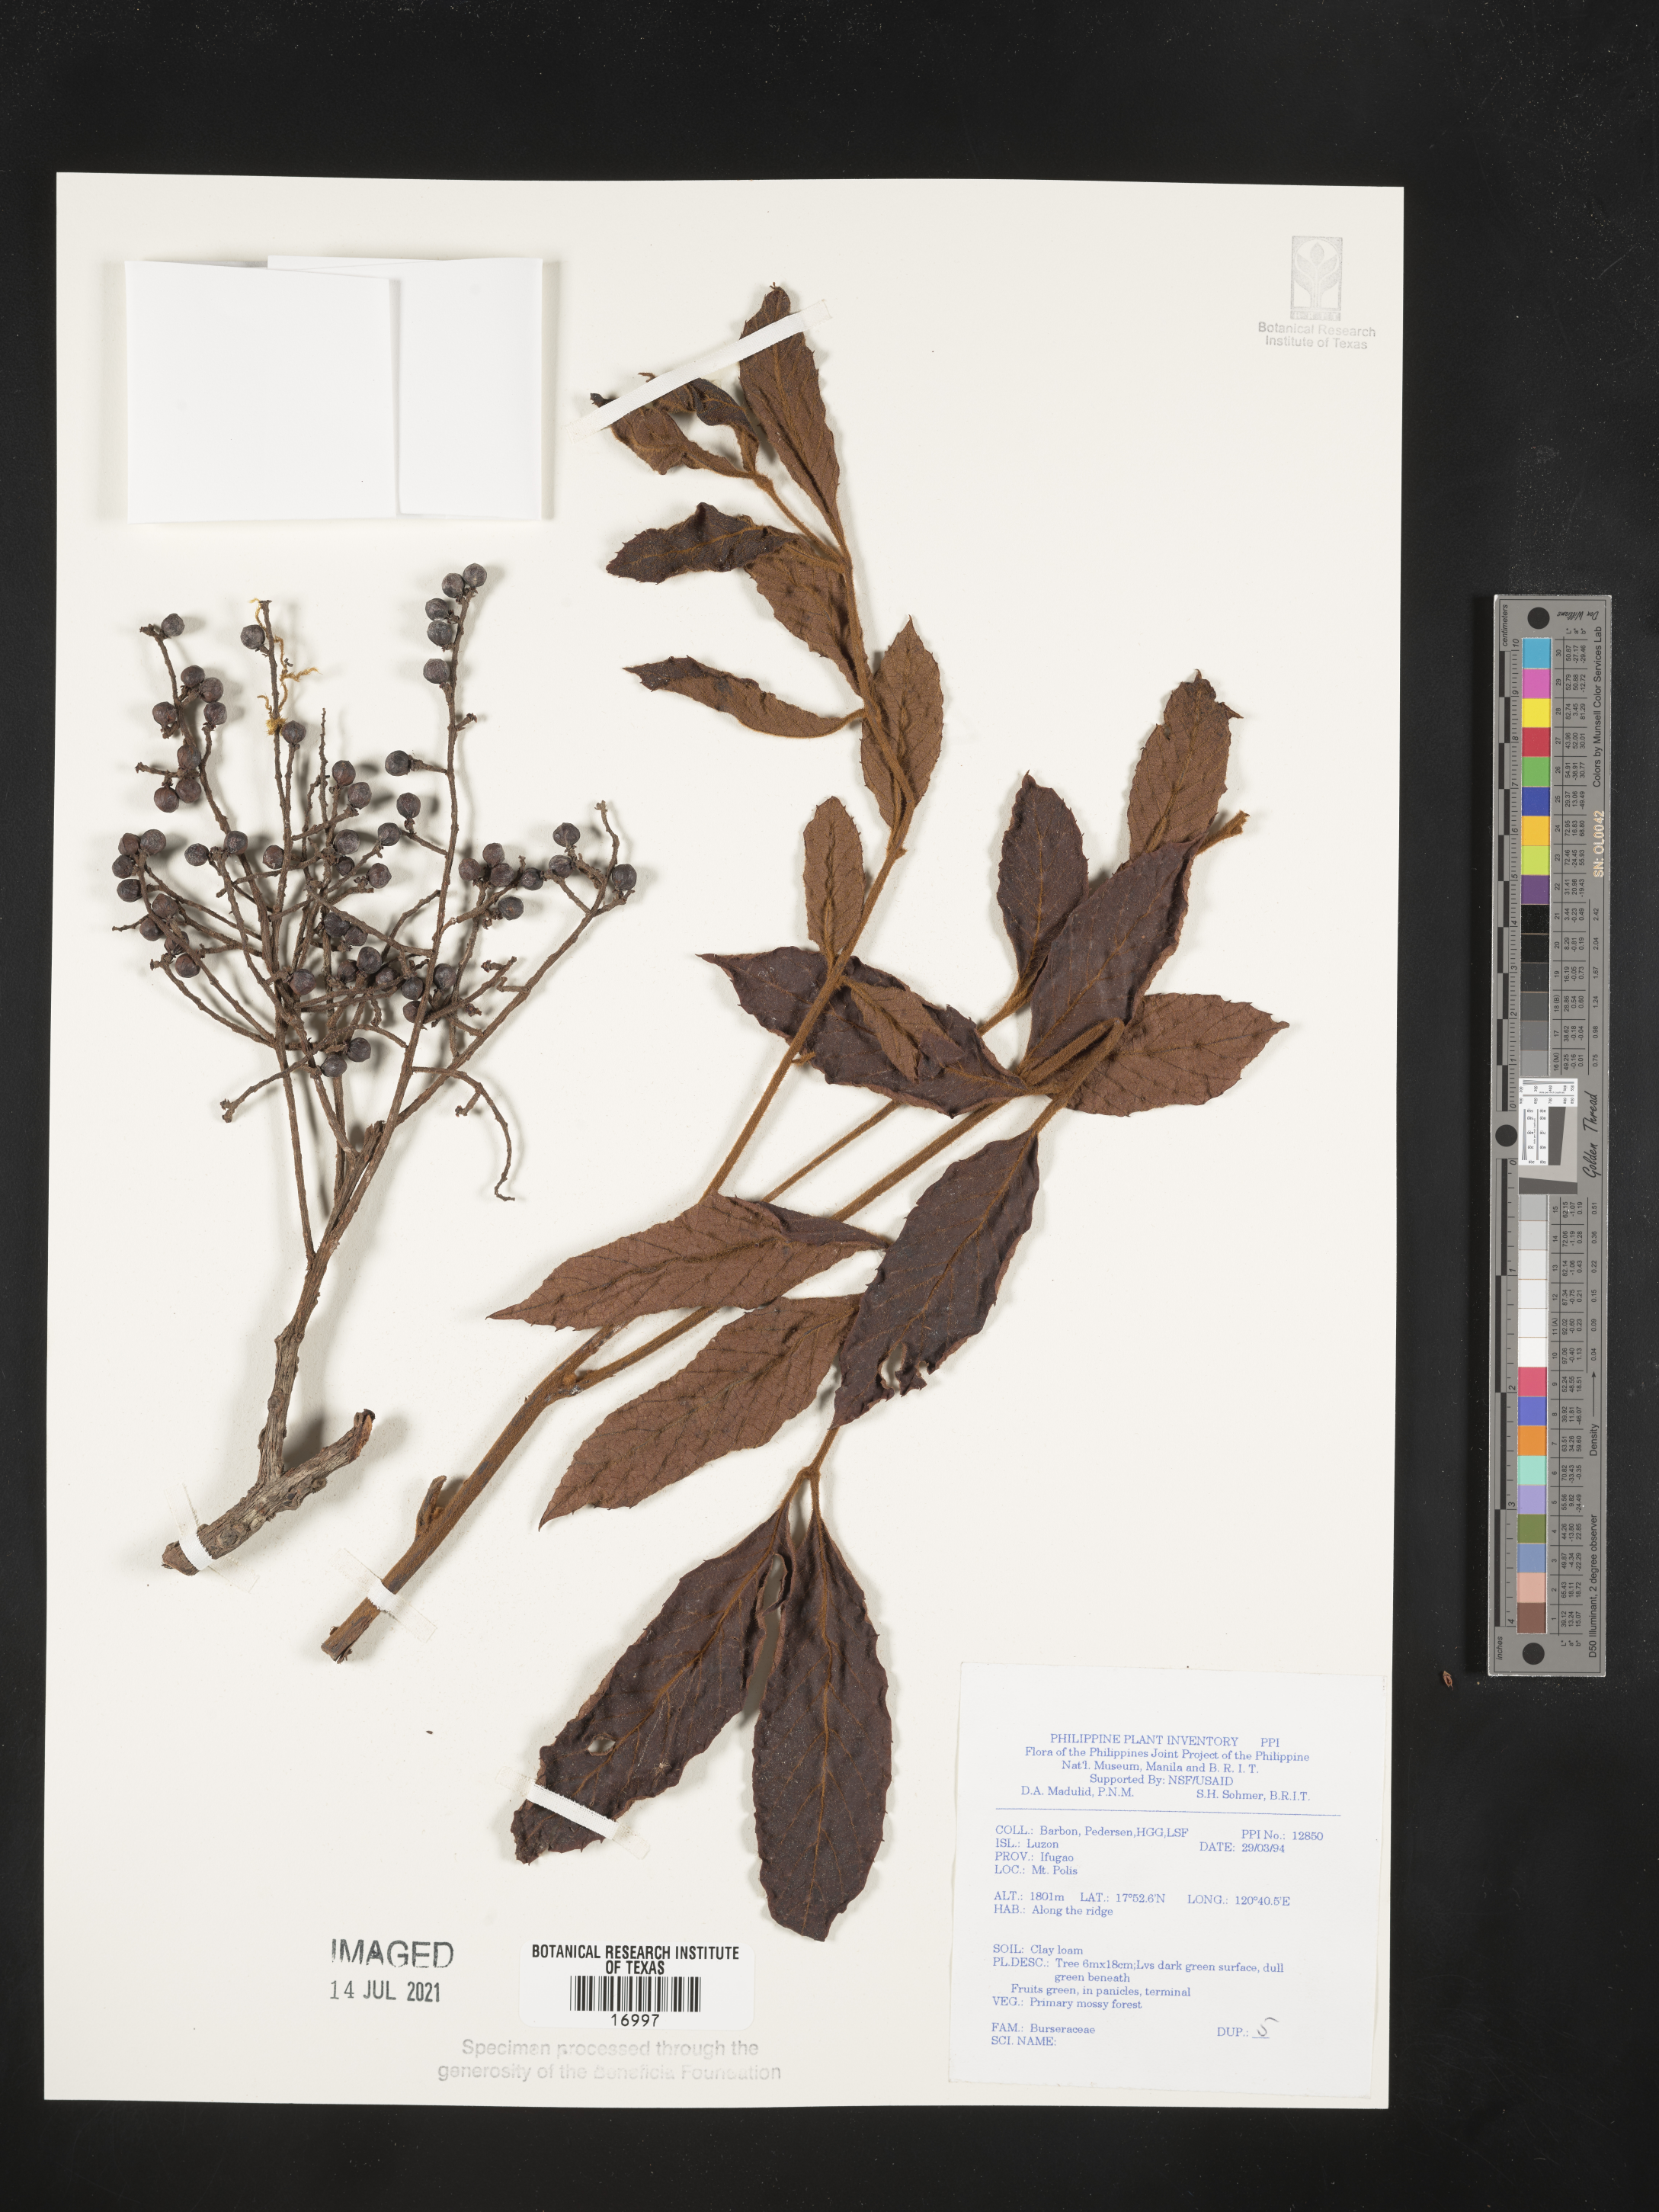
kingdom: Plantae
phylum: Tracheophyta
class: Magnoliopsida
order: Sapindales
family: Burseraceae
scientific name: Burseraceae
